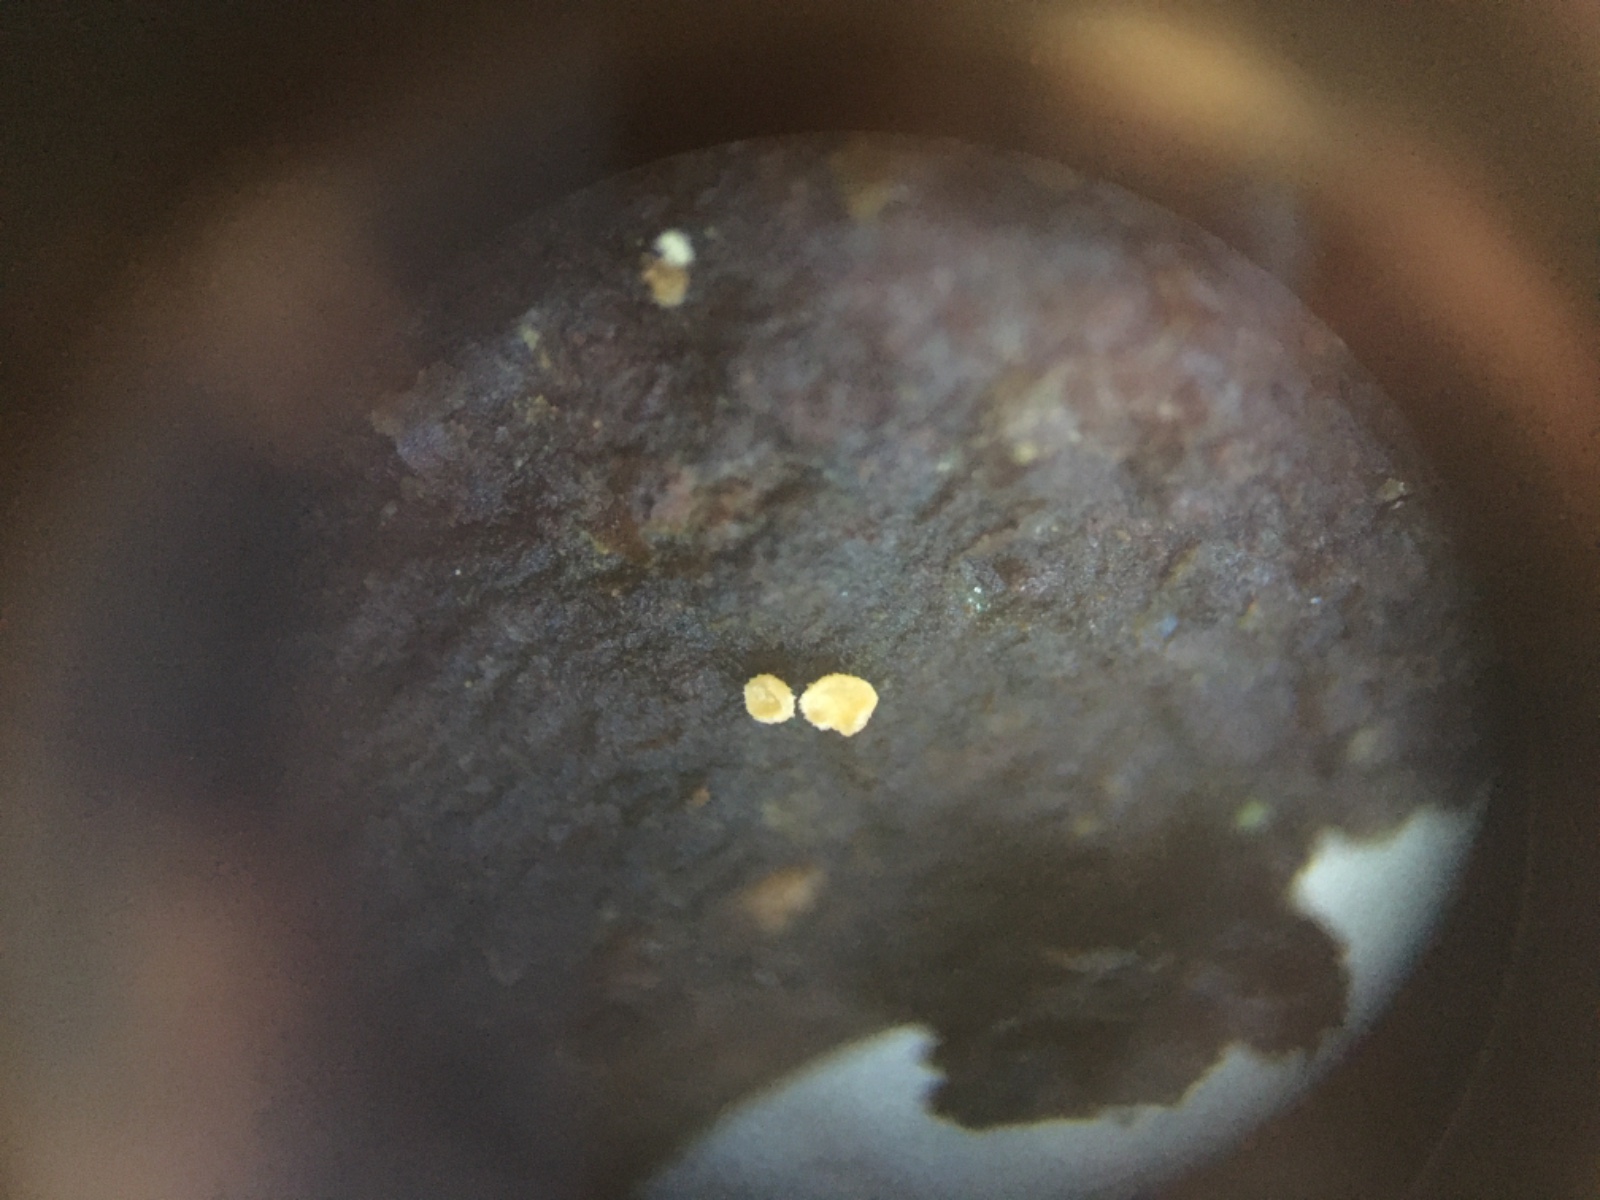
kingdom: Fungi
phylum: Ascomycota
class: Leotiomycetes
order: Helotiales
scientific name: Helotiales
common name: stilkskiveordenen
